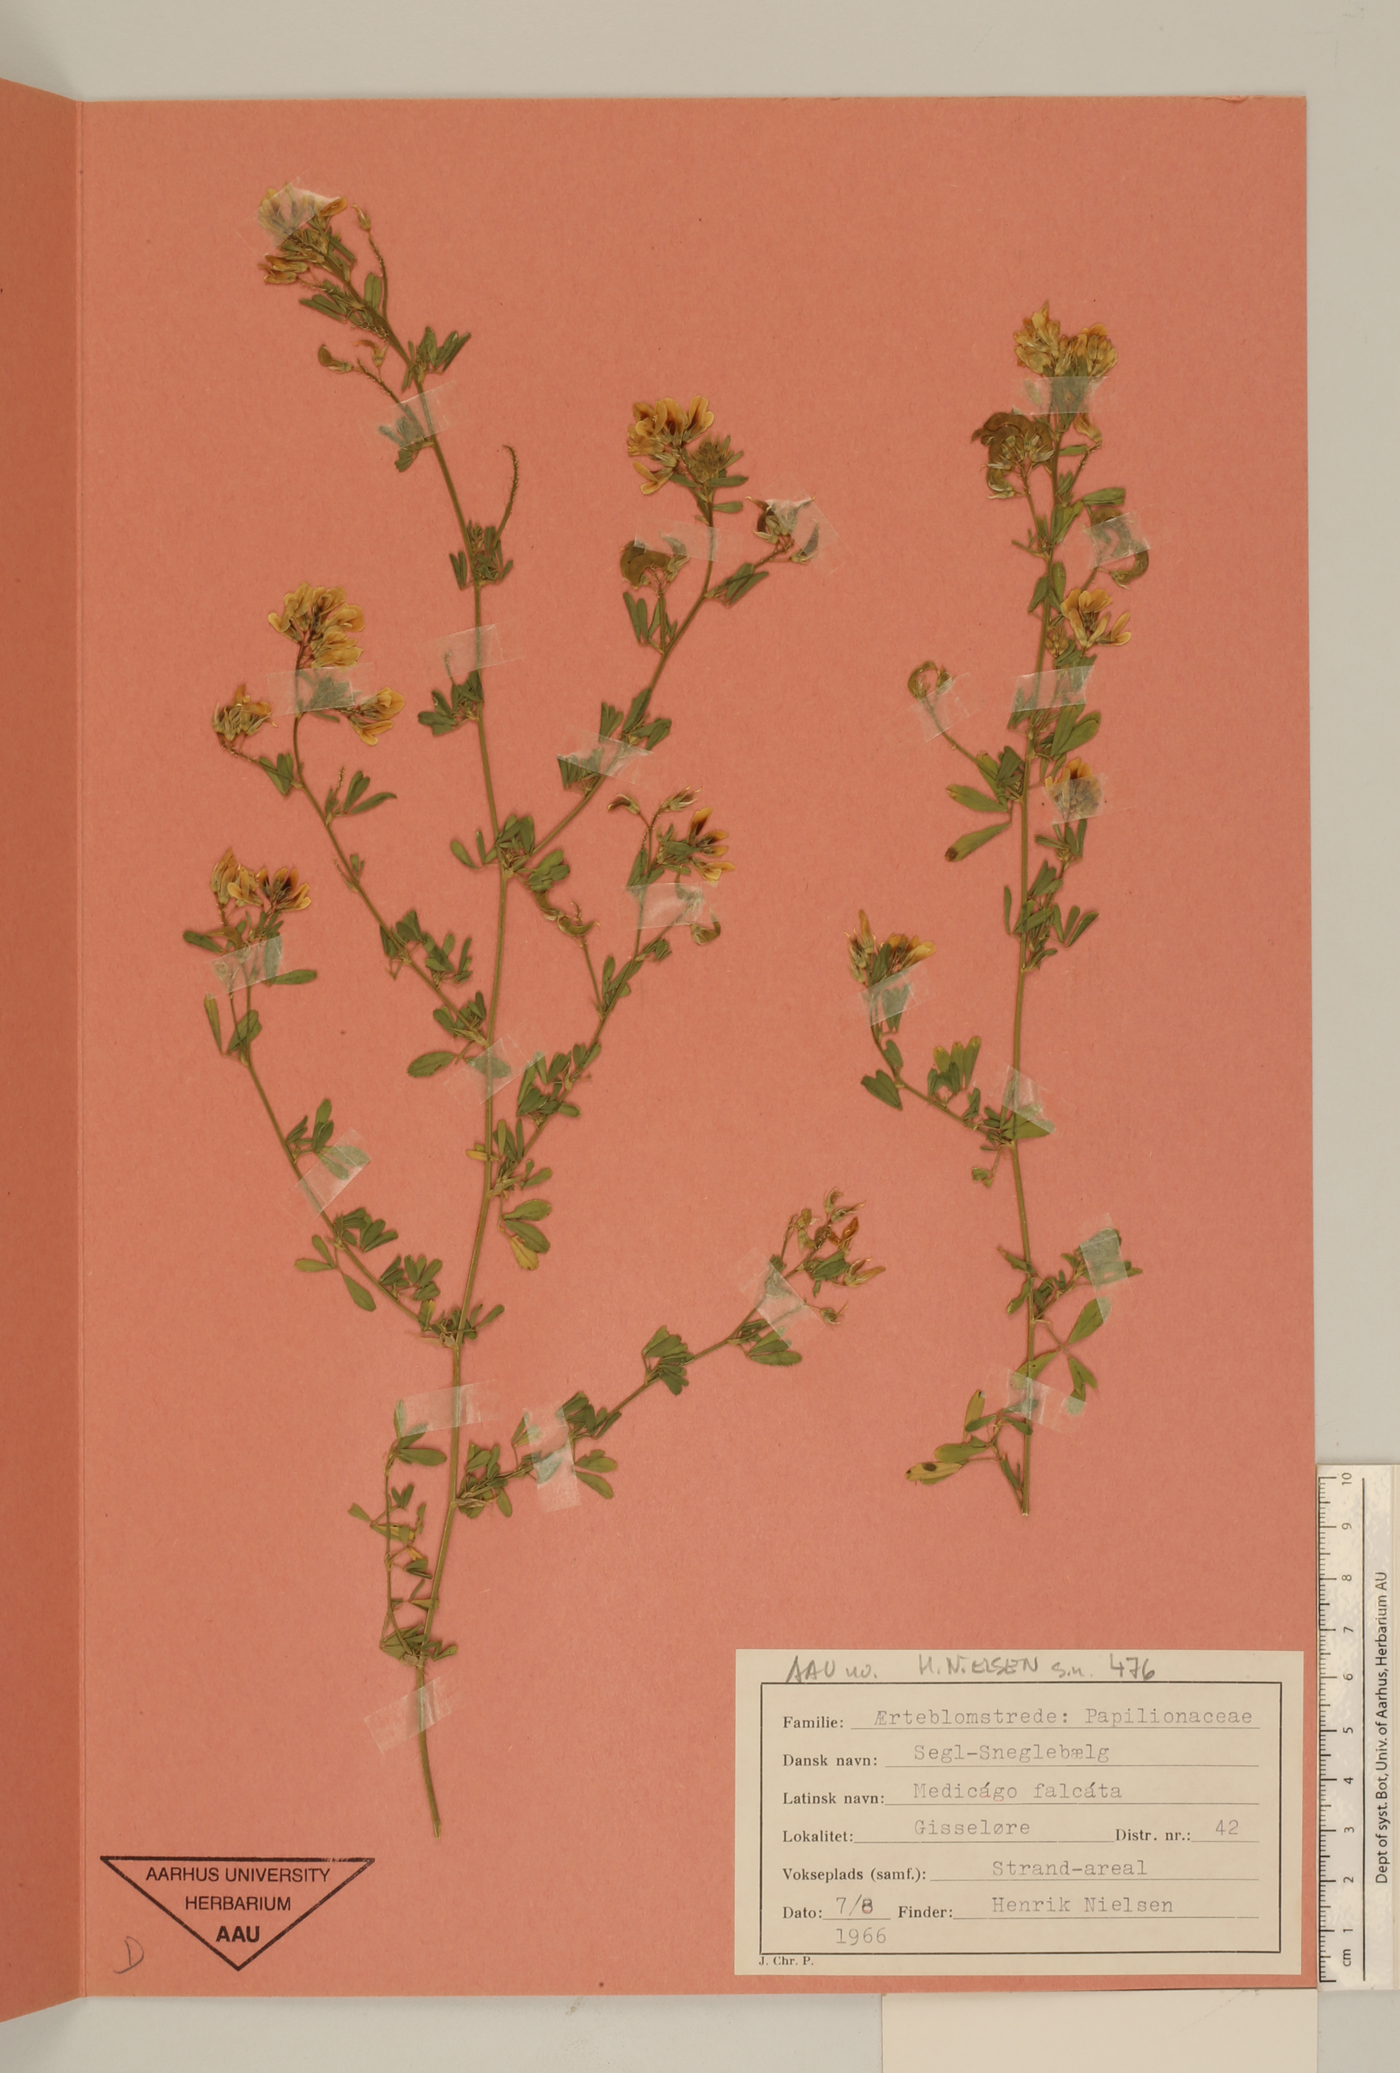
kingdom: Plantae
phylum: Tracheophyta
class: Magnoliopsida
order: Fabales
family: Fabaceae
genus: Medicago
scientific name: Medicago falcata
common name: Sickle medick
